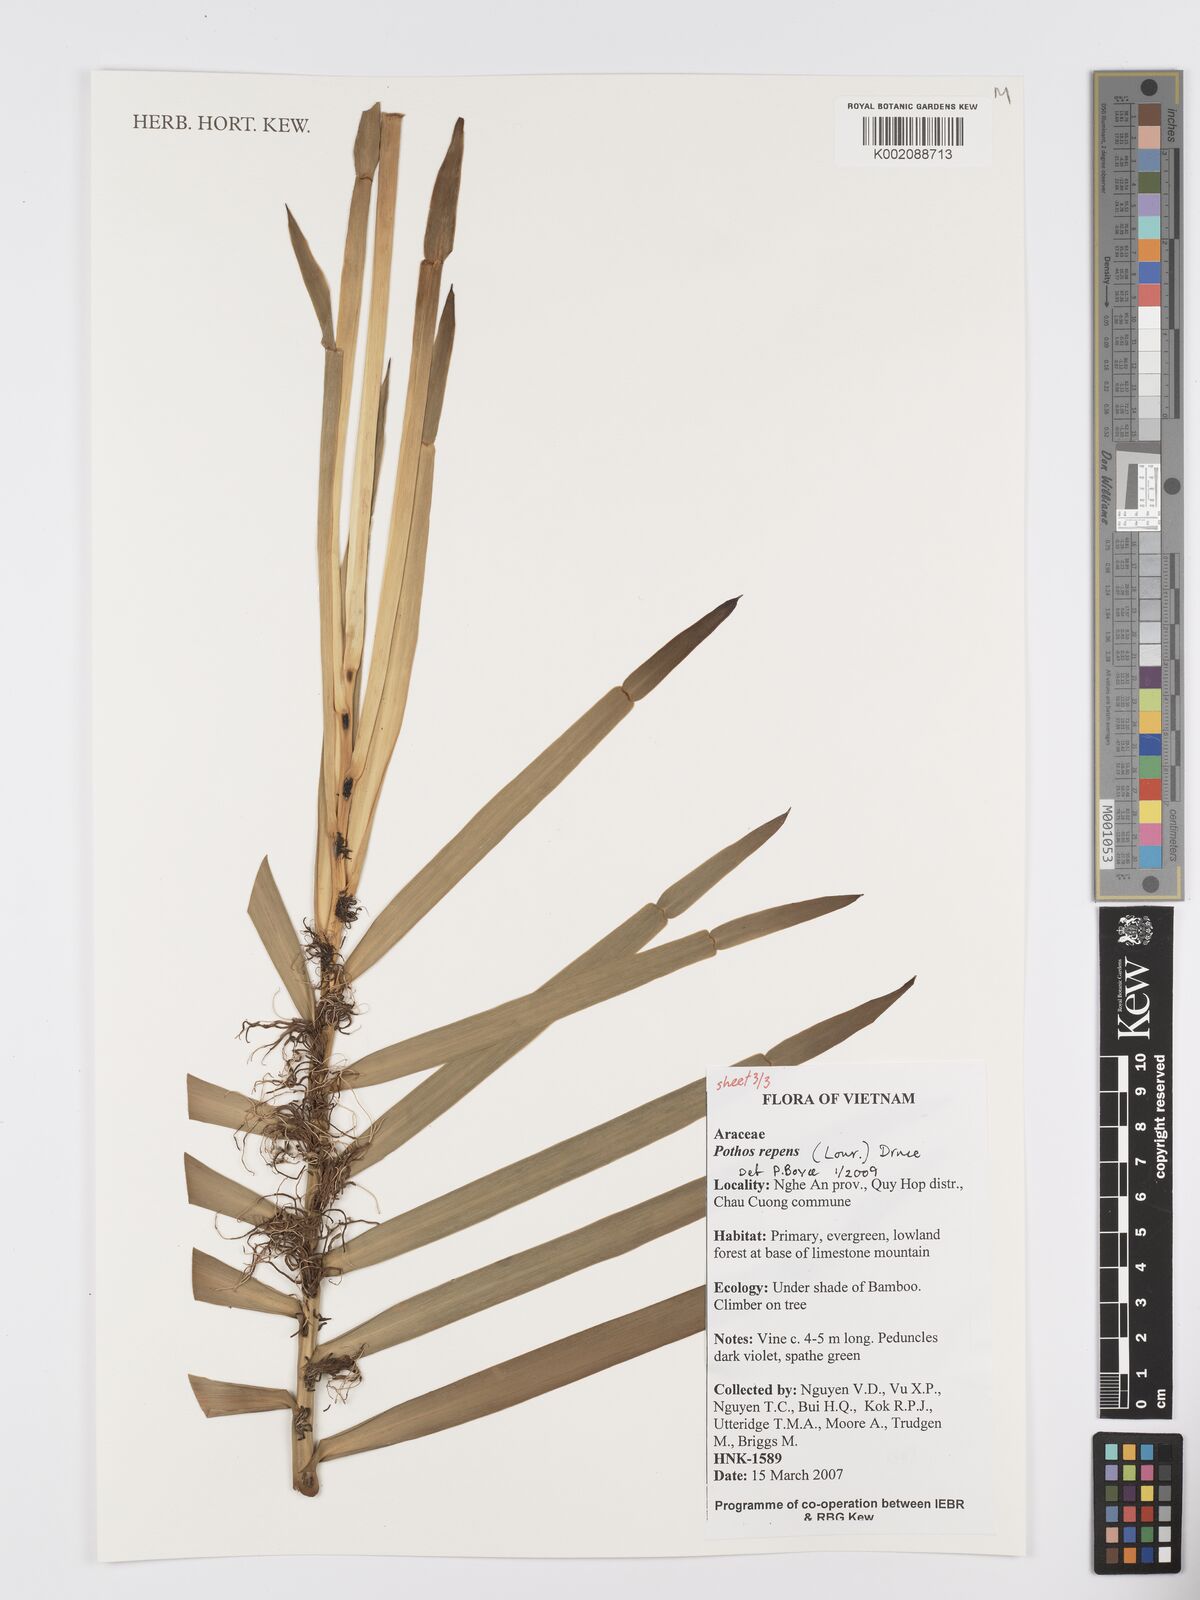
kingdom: Plantae
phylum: Tracheophyta
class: Liliopsida
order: Alismatales
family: Araceae
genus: Pothos
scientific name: Pothos repens
